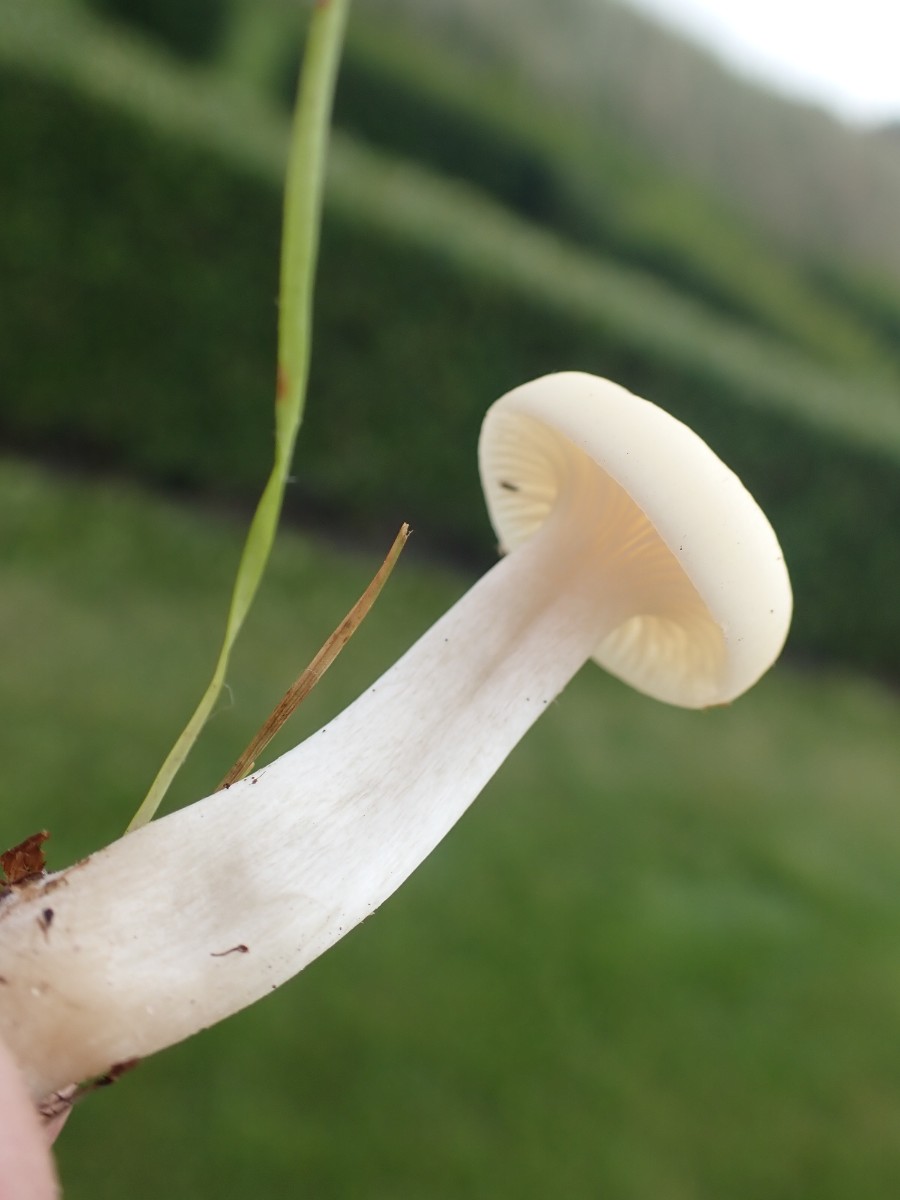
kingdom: Fungi
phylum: Basidiomycota
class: Agaricomycetes
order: Agaricales
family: Hygrophoraceae
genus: Cuphophyllus
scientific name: Cuphophyllus virgineus
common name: snehvid vokshat
